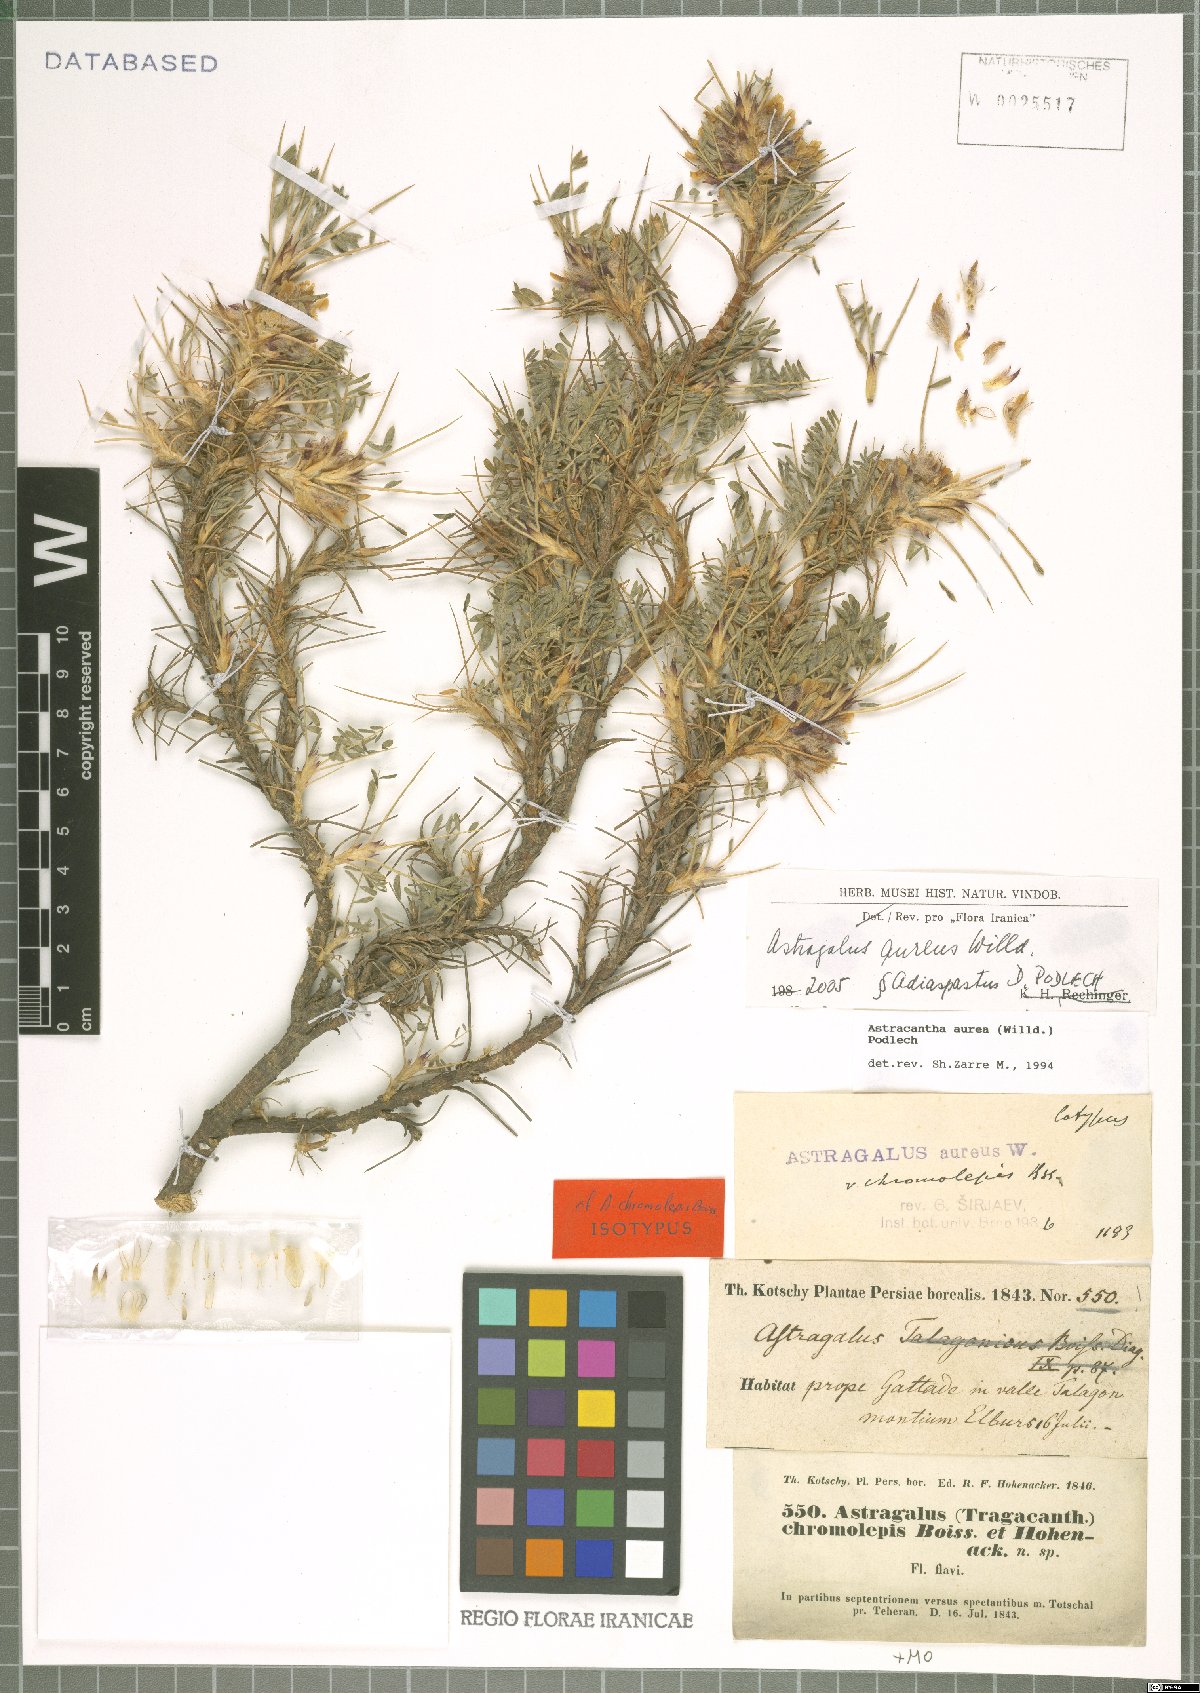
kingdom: Plantae
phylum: Tracheophyta
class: Magnoliopsida
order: Fabales
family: Fabaceae
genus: Astragalus
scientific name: Astragalus aureus
